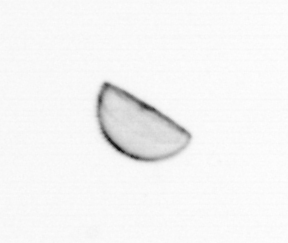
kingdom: Chromista
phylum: Ochrophyta
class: Bacillariophyceae
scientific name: Bacillariophyceae
